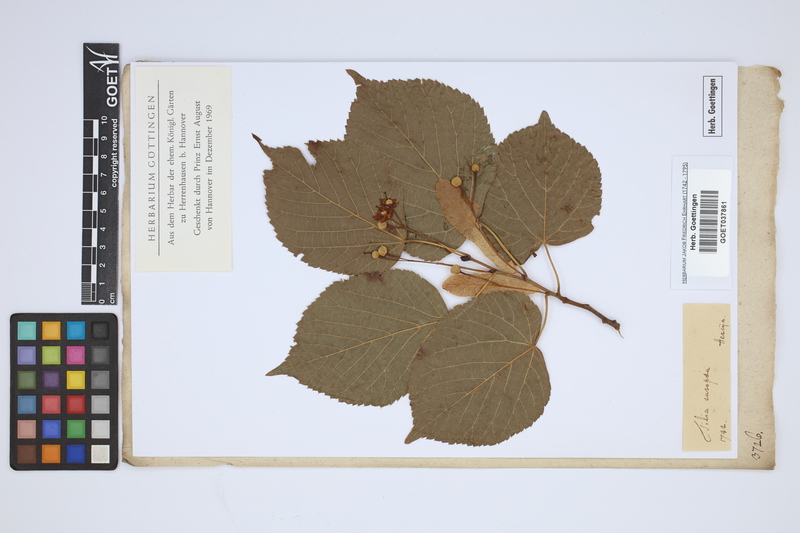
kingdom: Plantae
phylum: Tracheophyta
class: Magnoliopsida
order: Malvales
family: Malvaceae
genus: Tilia
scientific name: Tilia europaea
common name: European linden
